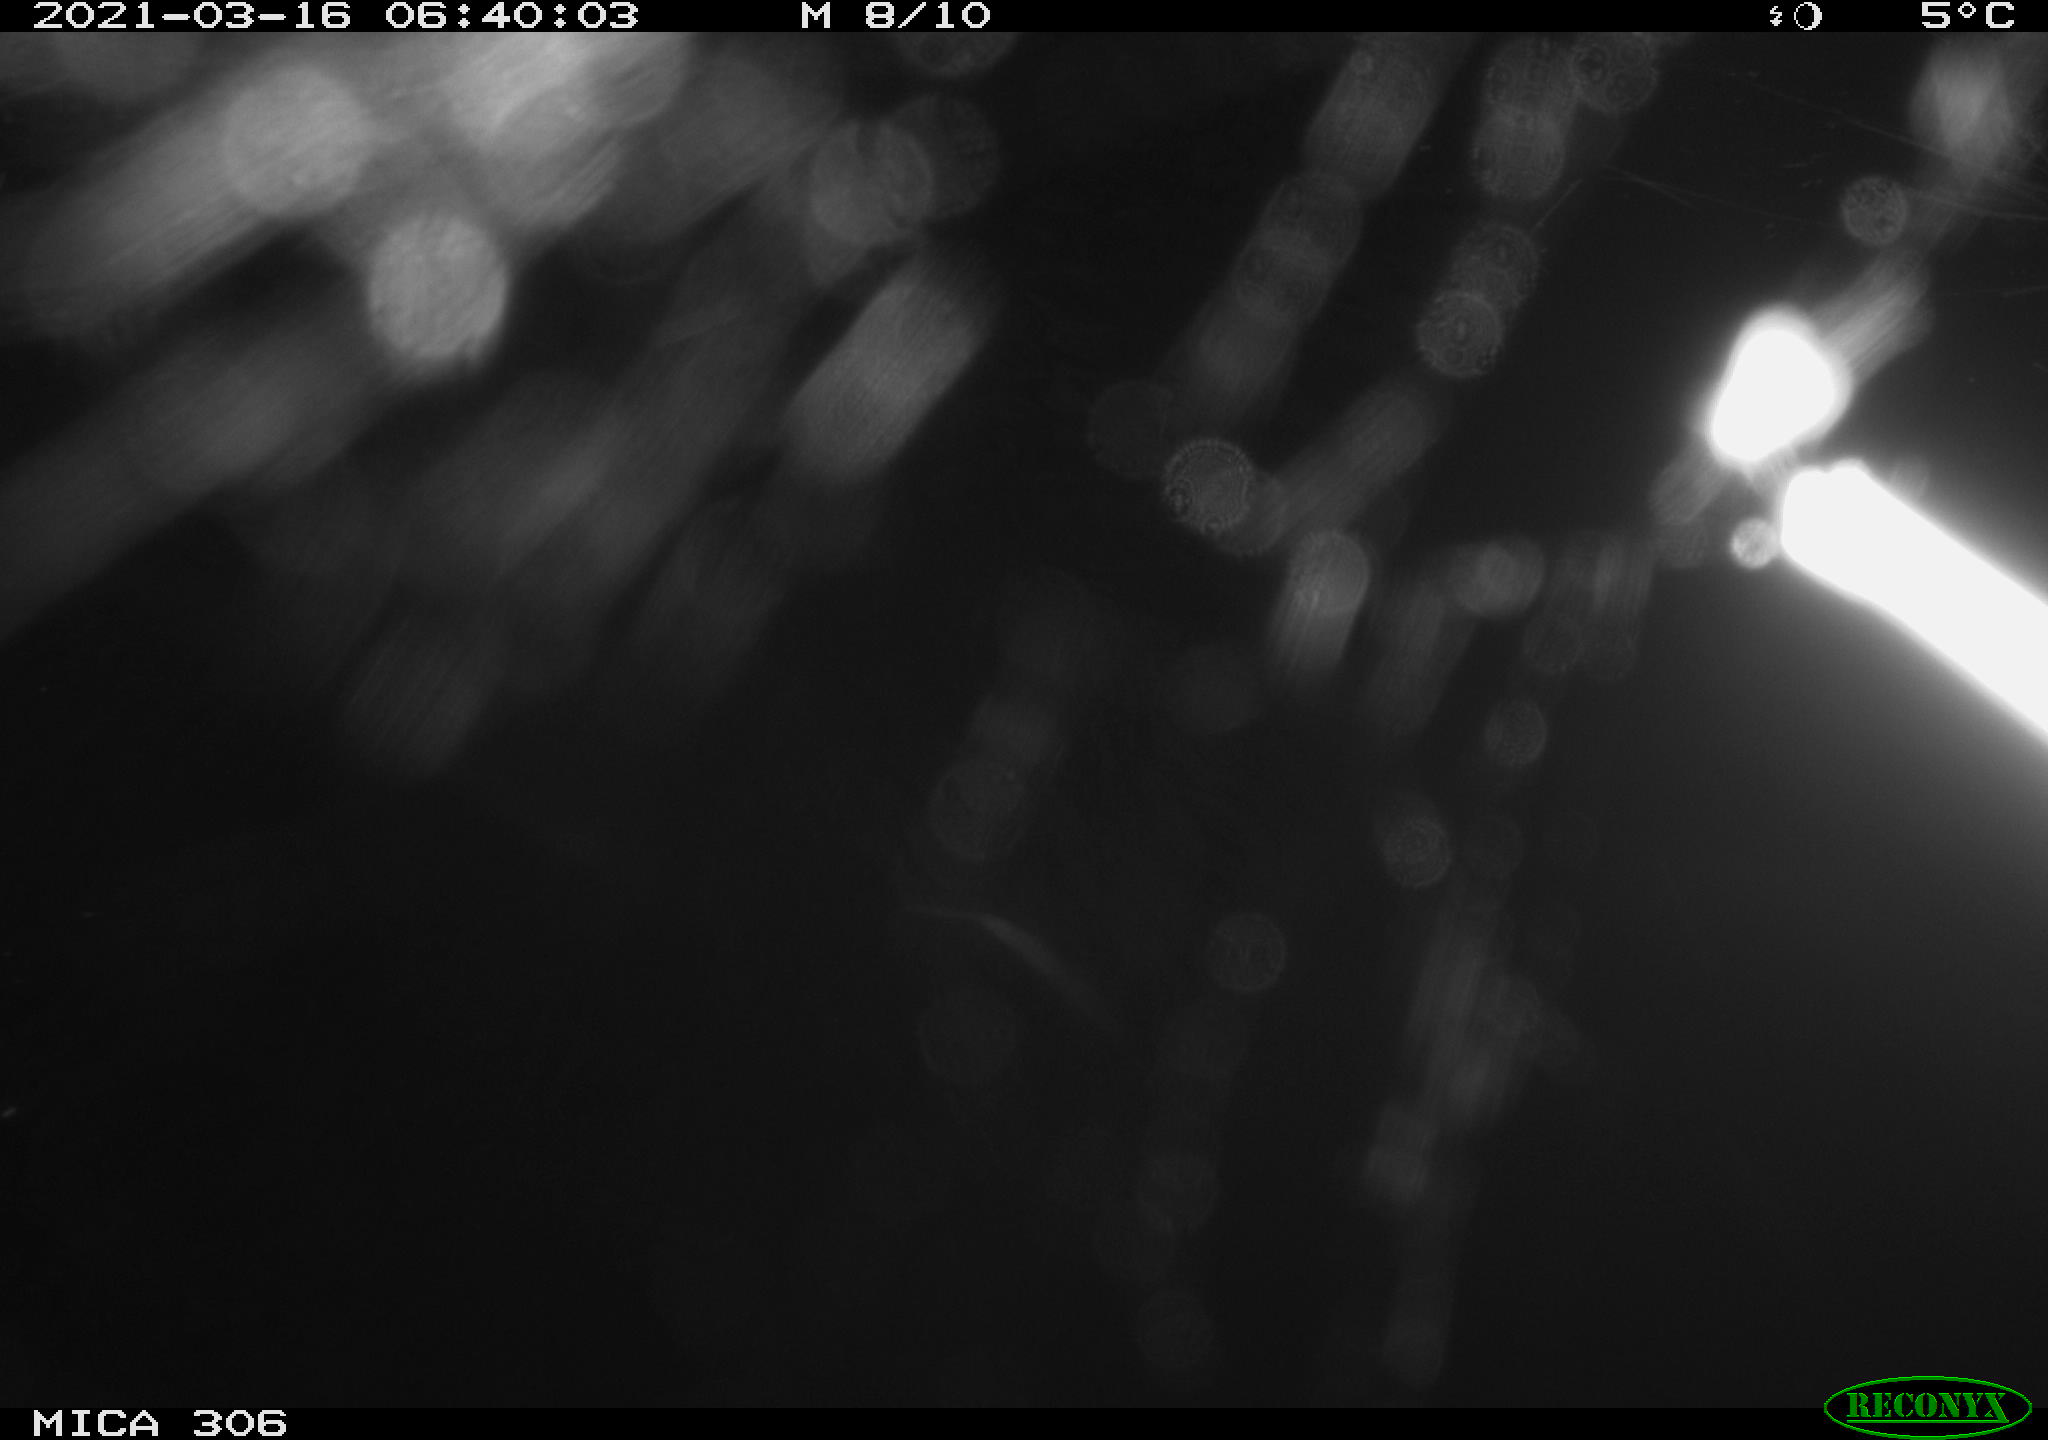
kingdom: Animalia
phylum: Chordata
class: Aves
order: Gruiformes
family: Rallidae
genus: Gallinula
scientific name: Gallinula chloropus
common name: Common moorhen
